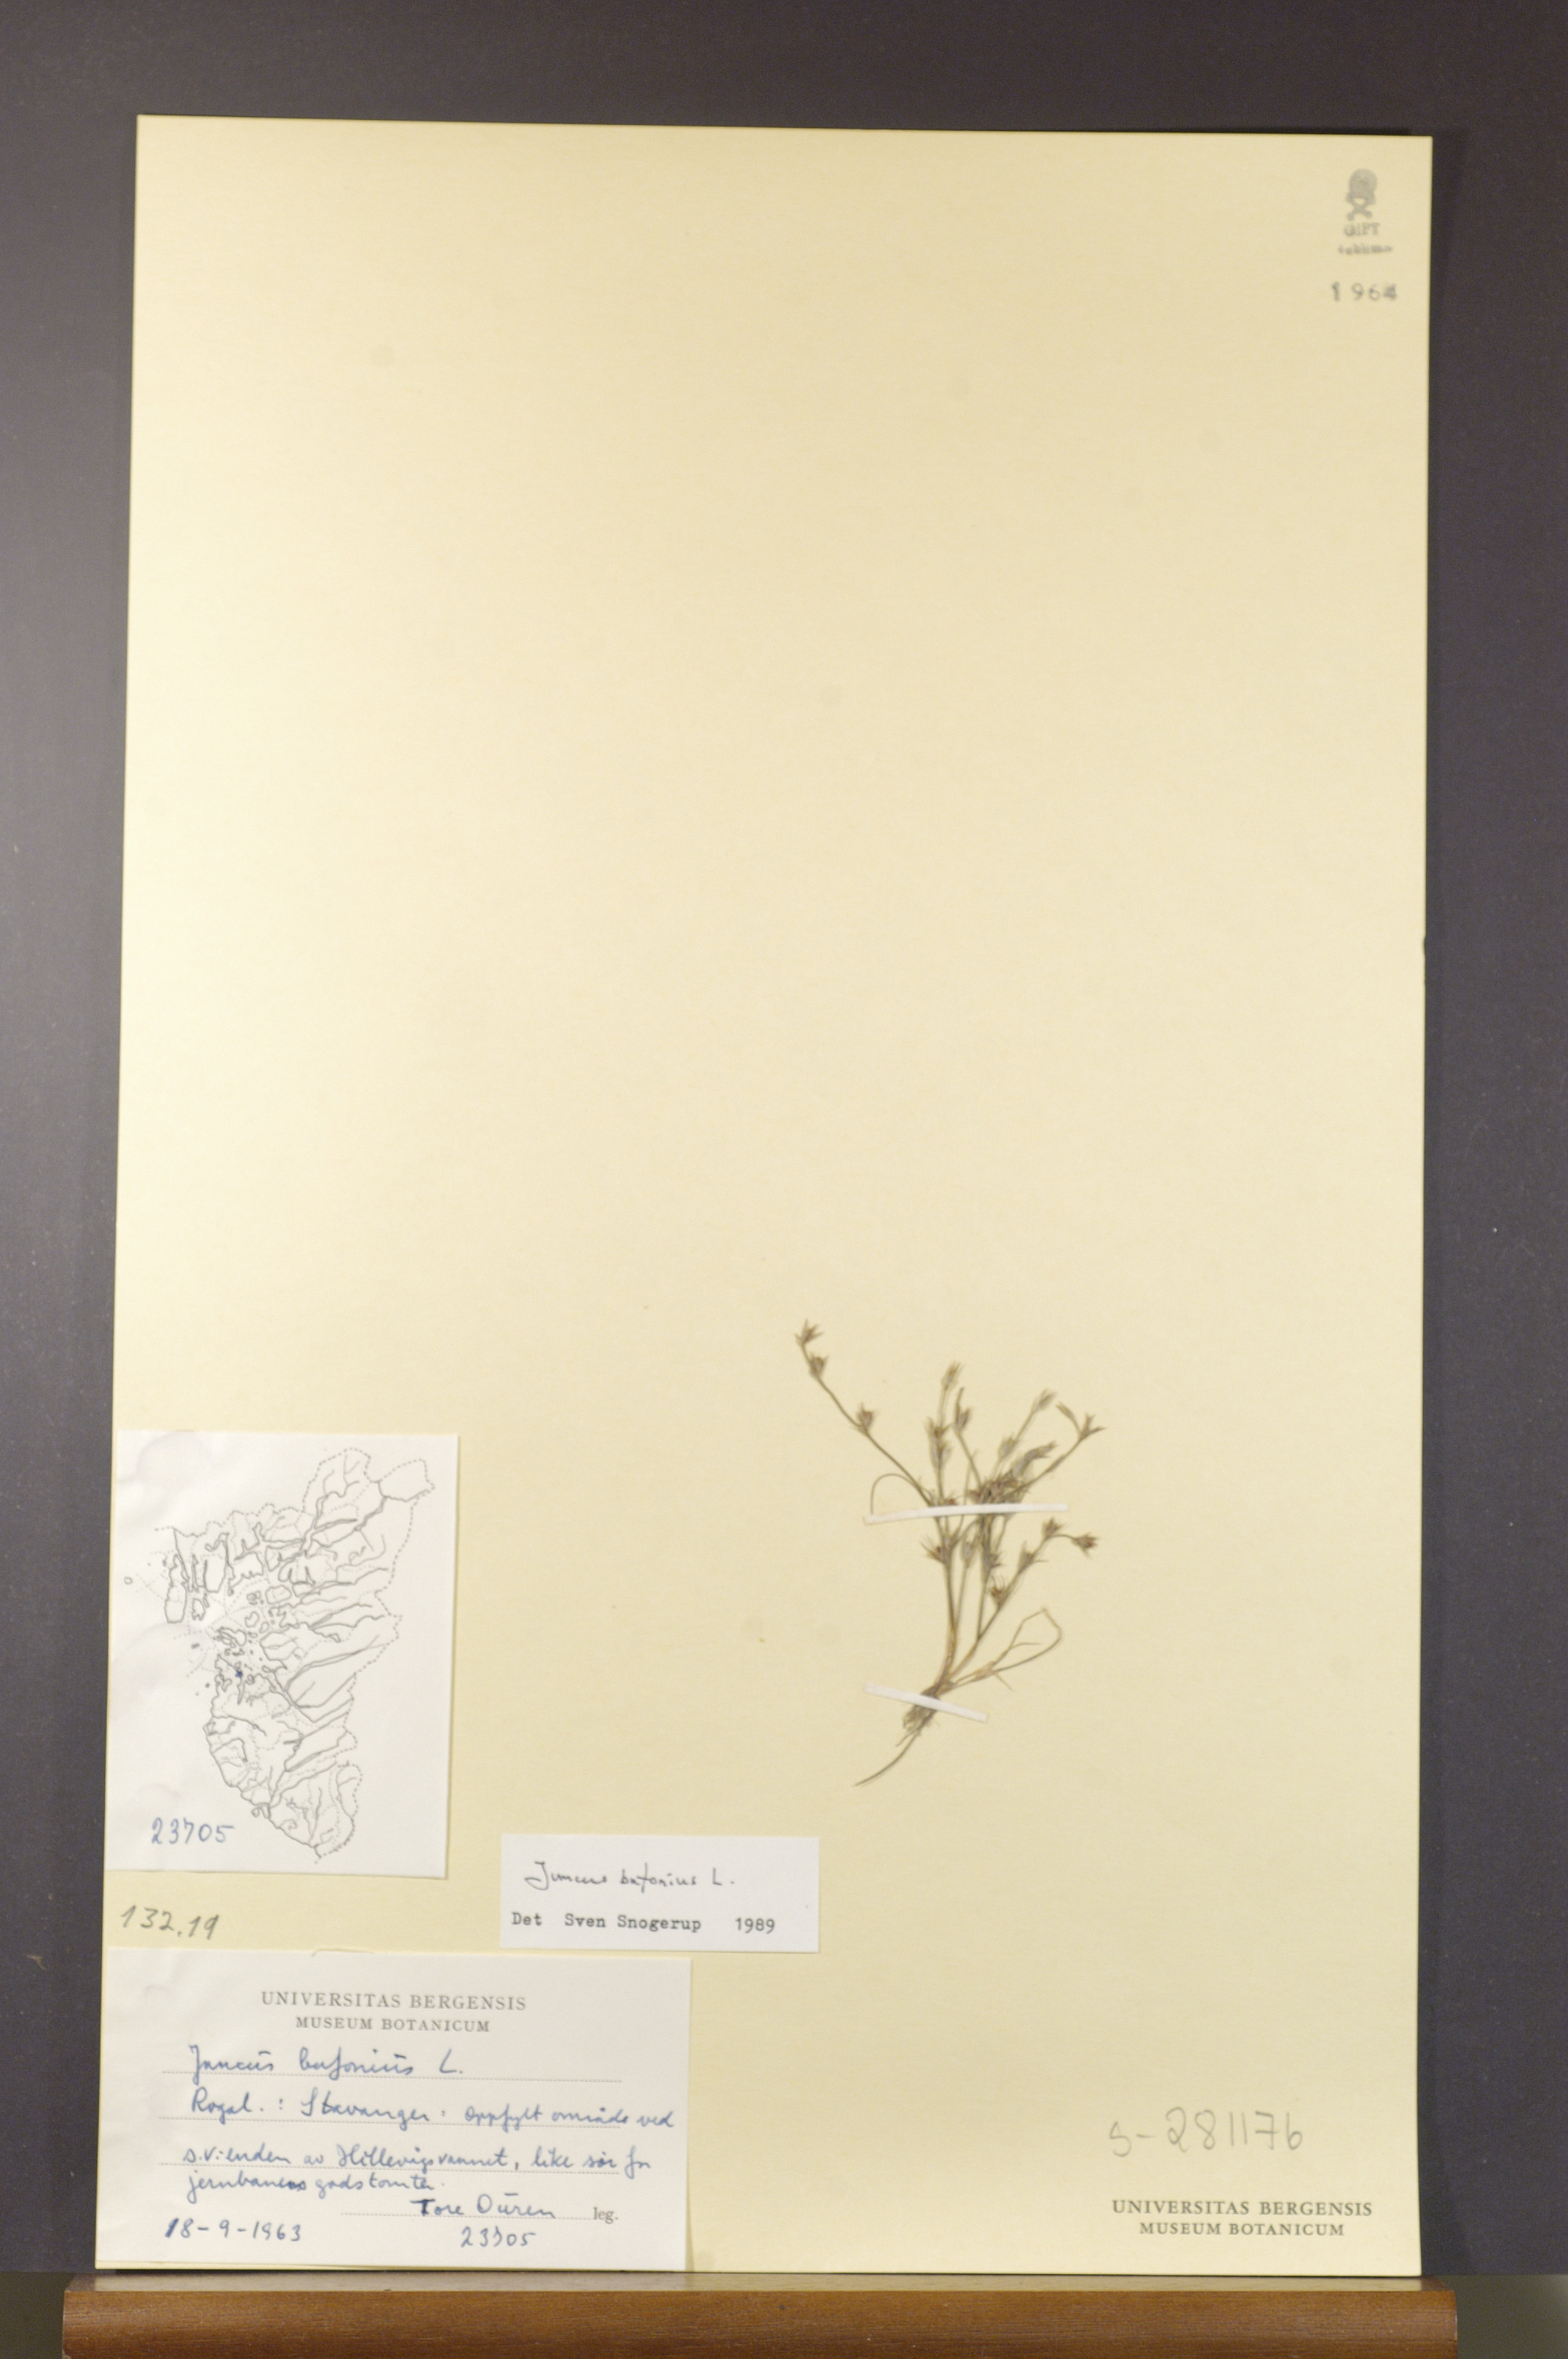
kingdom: Plantae
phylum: Tracheophyta
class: Liliopsida
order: Poales
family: Juncaceae
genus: Juncus
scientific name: Juncus bufonius
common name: Toad rush
